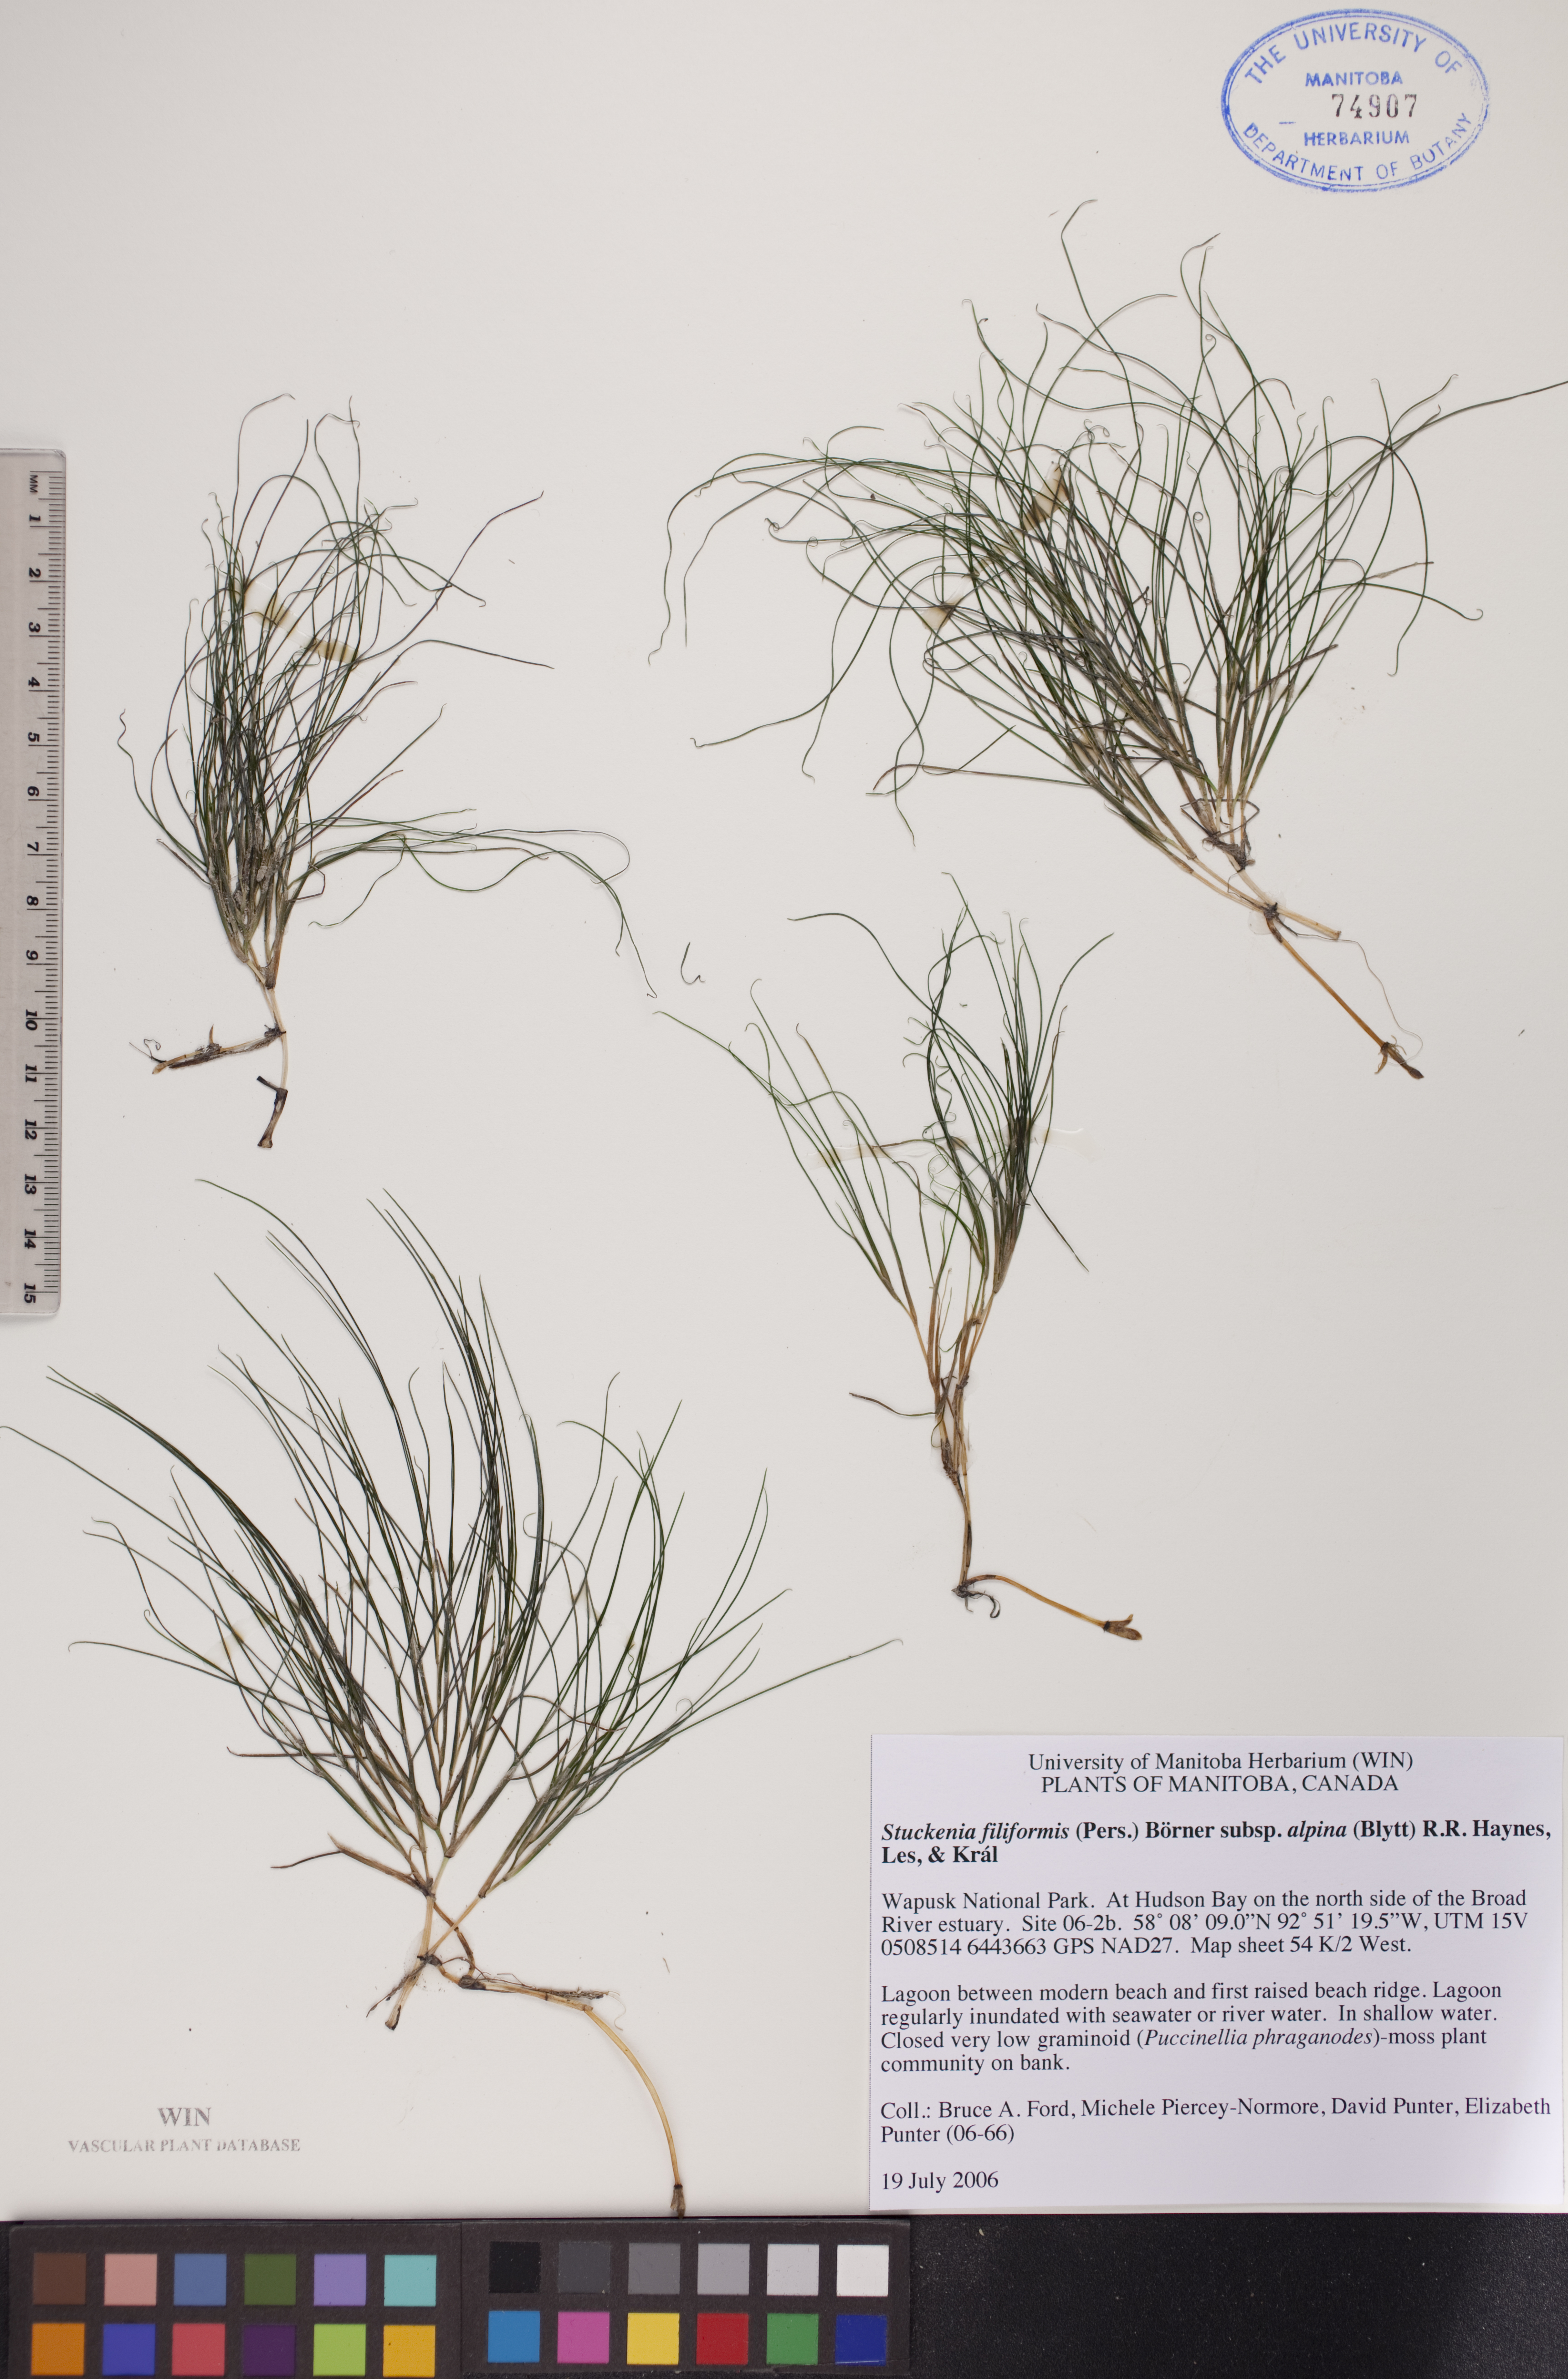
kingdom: Plantae
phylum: Tracheophyta
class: Liliopsida
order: Alismatales
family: Potamogetonaceae
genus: Stuckenia
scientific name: Stuckenia filiformis
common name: Alpine thread-leaved pondweed
